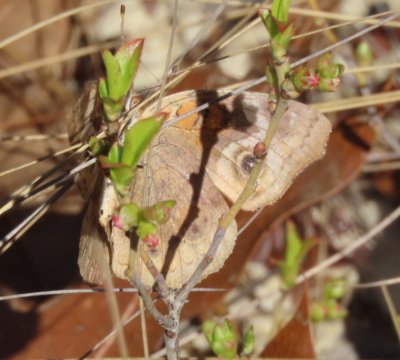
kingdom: Animalia
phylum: Arthropoda
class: Insecta
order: Lepidoptera
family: Nymphalidae
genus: Junonia
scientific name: Junonia coenia
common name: Common Buckeye
